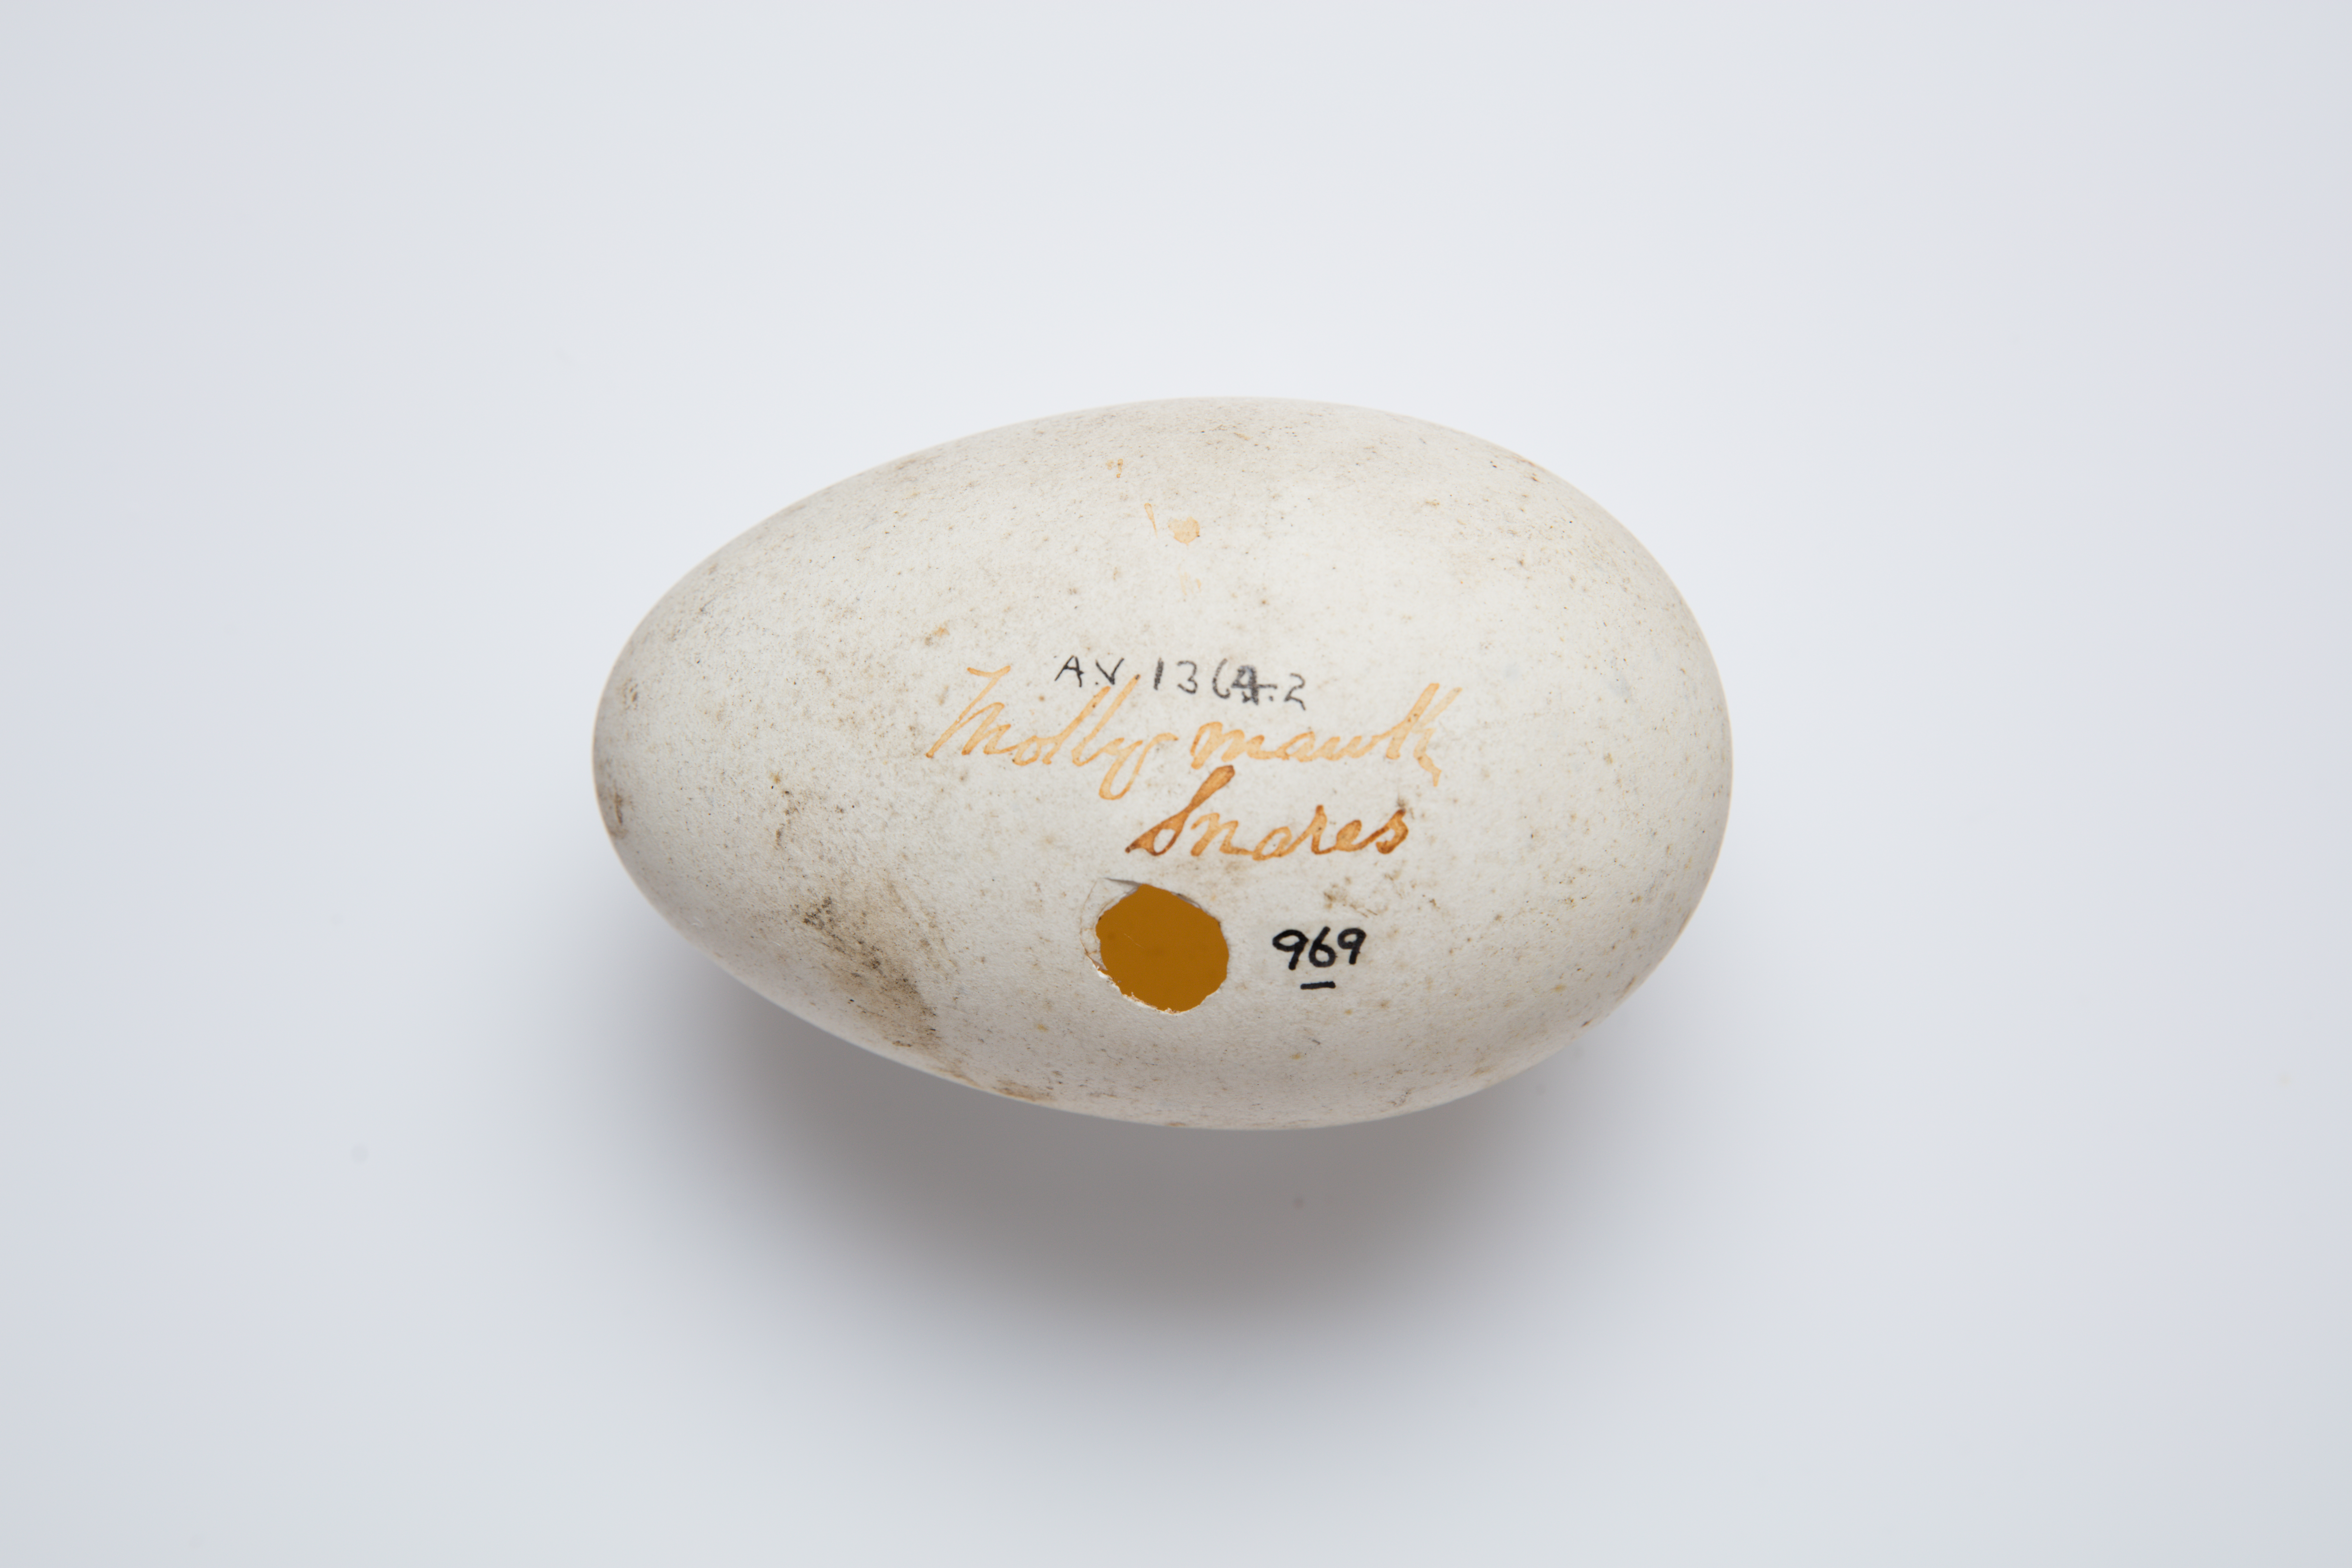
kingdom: Animalia
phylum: Chordata
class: Aves
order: Procellariiformes
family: Diomedeidae
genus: Thalassarche
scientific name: Thalassarche bulleri
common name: Buller's albatross
